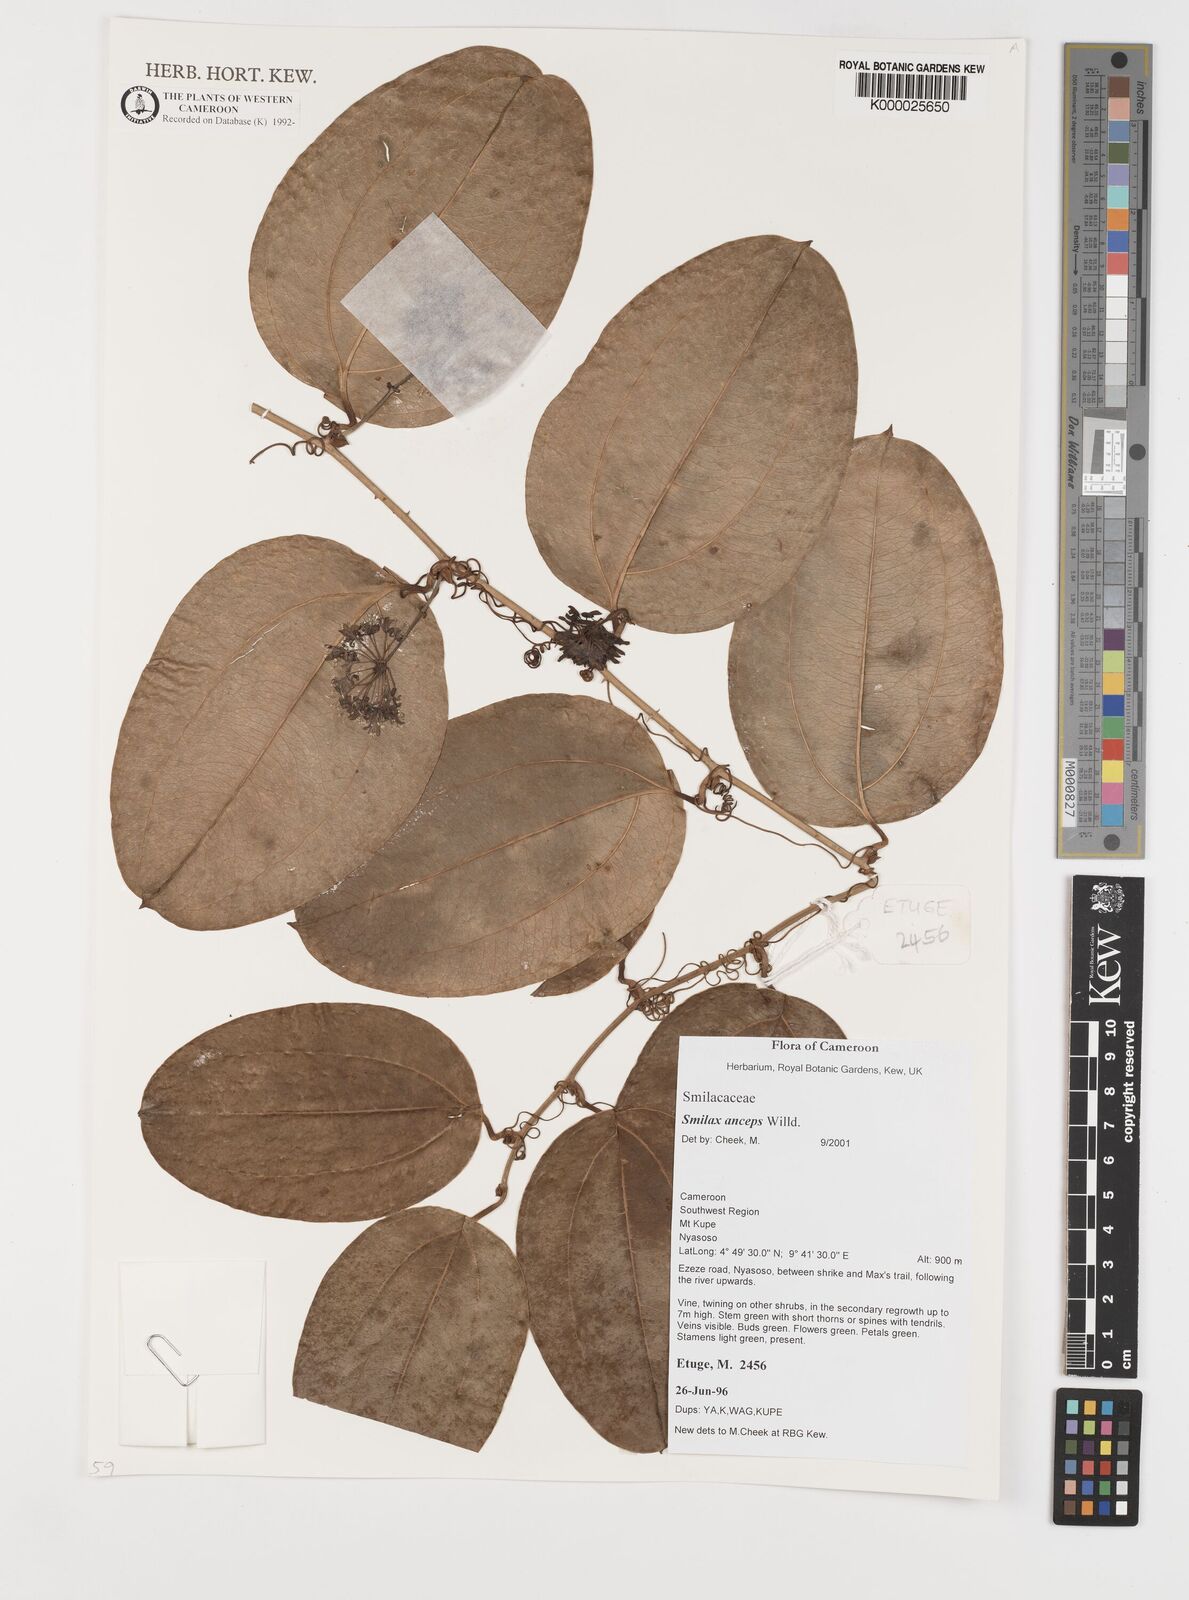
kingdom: Plantae
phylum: Tracheophyta
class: Liliopsida
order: Liliales
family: Smilacaceae
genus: Smilax
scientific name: Smilax anceps
